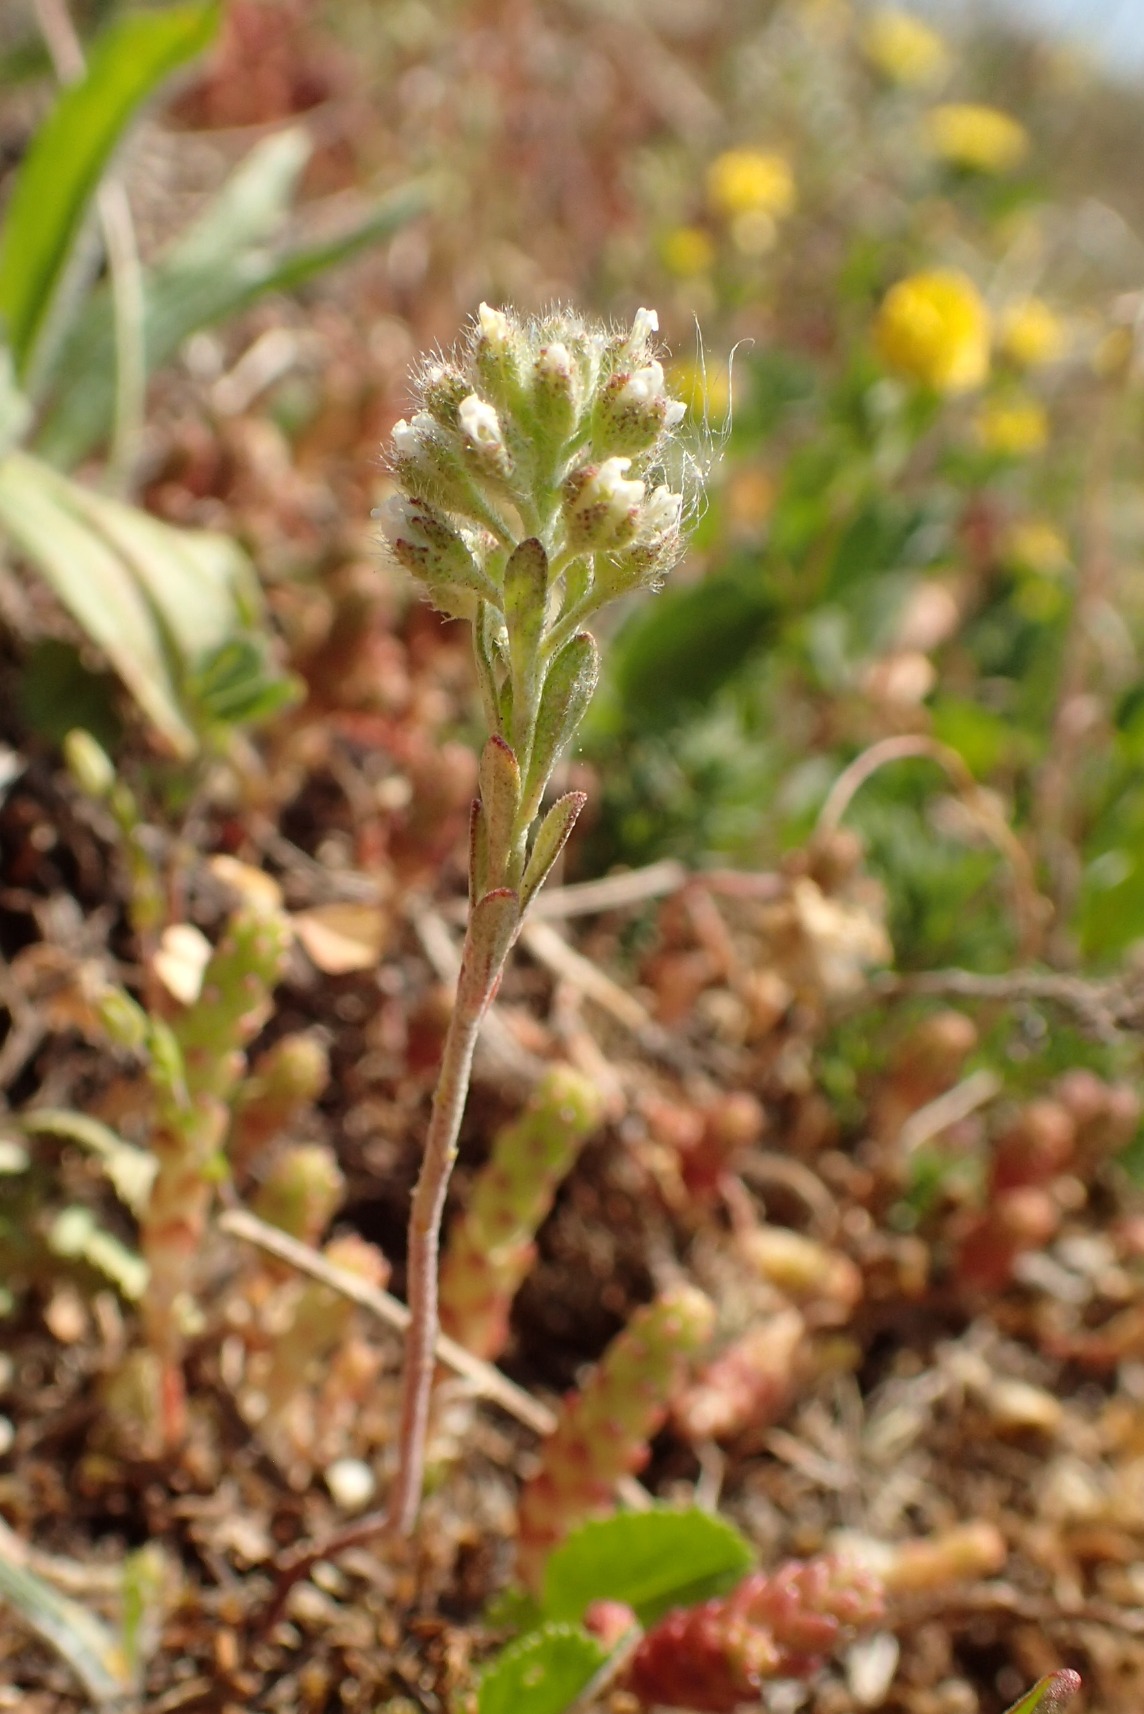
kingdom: Plantae
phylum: Tracheophyta
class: Magnoliopsida
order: Brassicales
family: Brassicaceae
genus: Alyssum
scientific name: Alyssum alyssoides
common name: Grådodder
